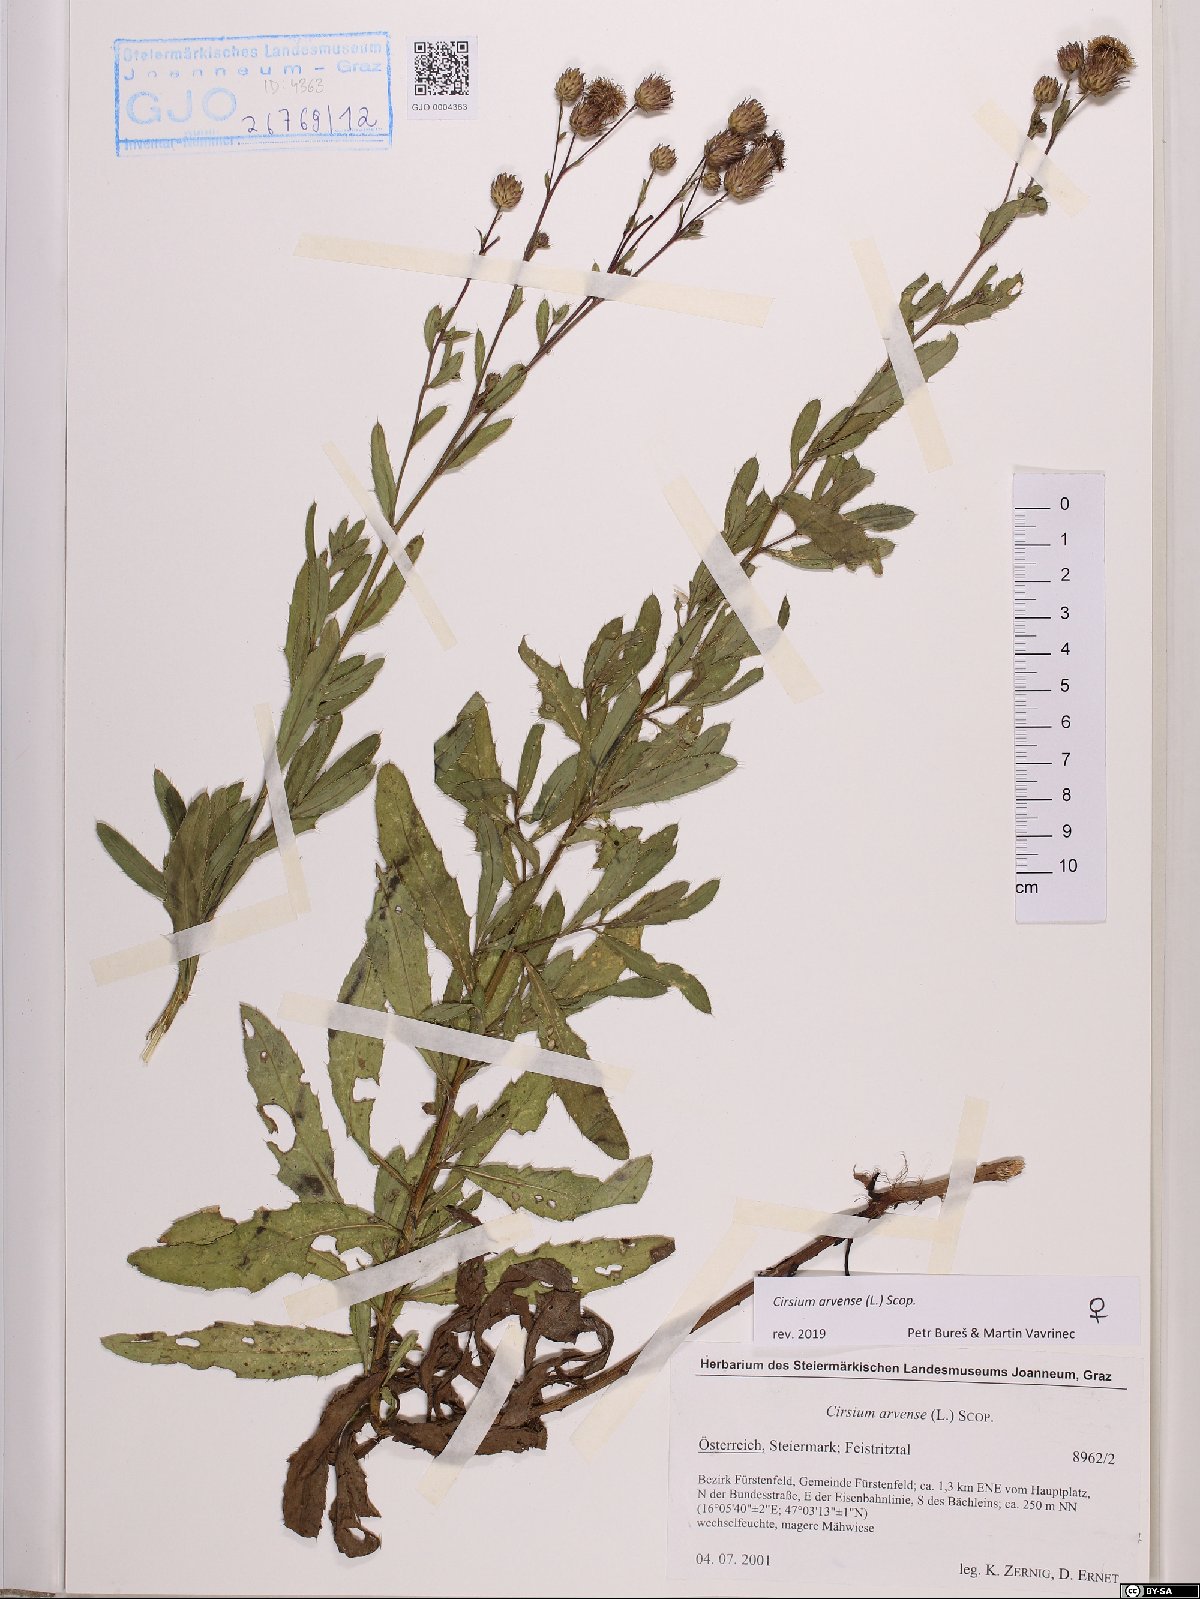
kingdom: Plantae
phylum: Tracheophyta
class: Magnoliopsida
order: Asterales
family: Asteraceae
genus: Cirsium
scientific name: Cirsium arvense
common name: Creeping thistle
